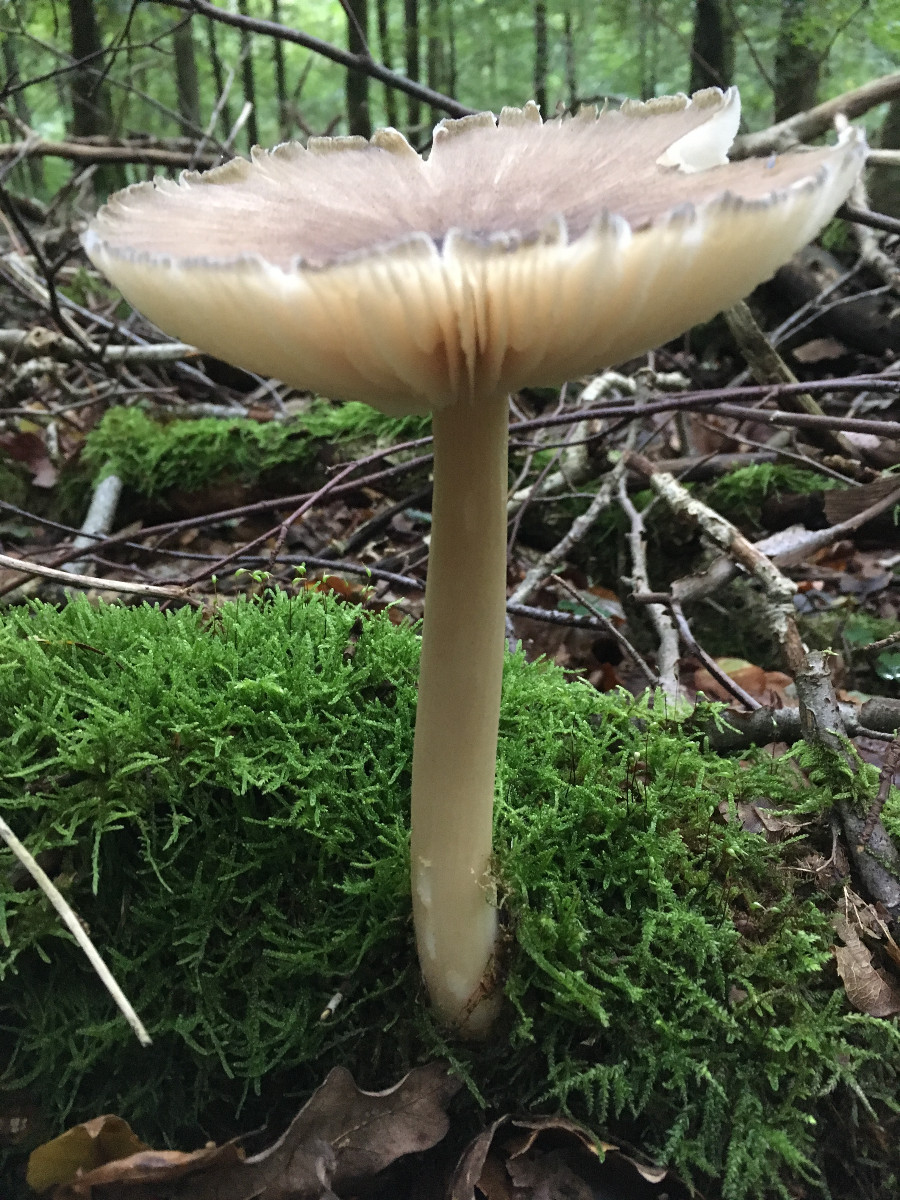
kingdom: Fungi
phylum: Basidiomycota
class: Agaricomycetes
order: Agaricales
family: Tricholomataceae
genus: Megacollybia
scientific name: Megacollybia platyphylla
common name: bredbladet væbnerhat
